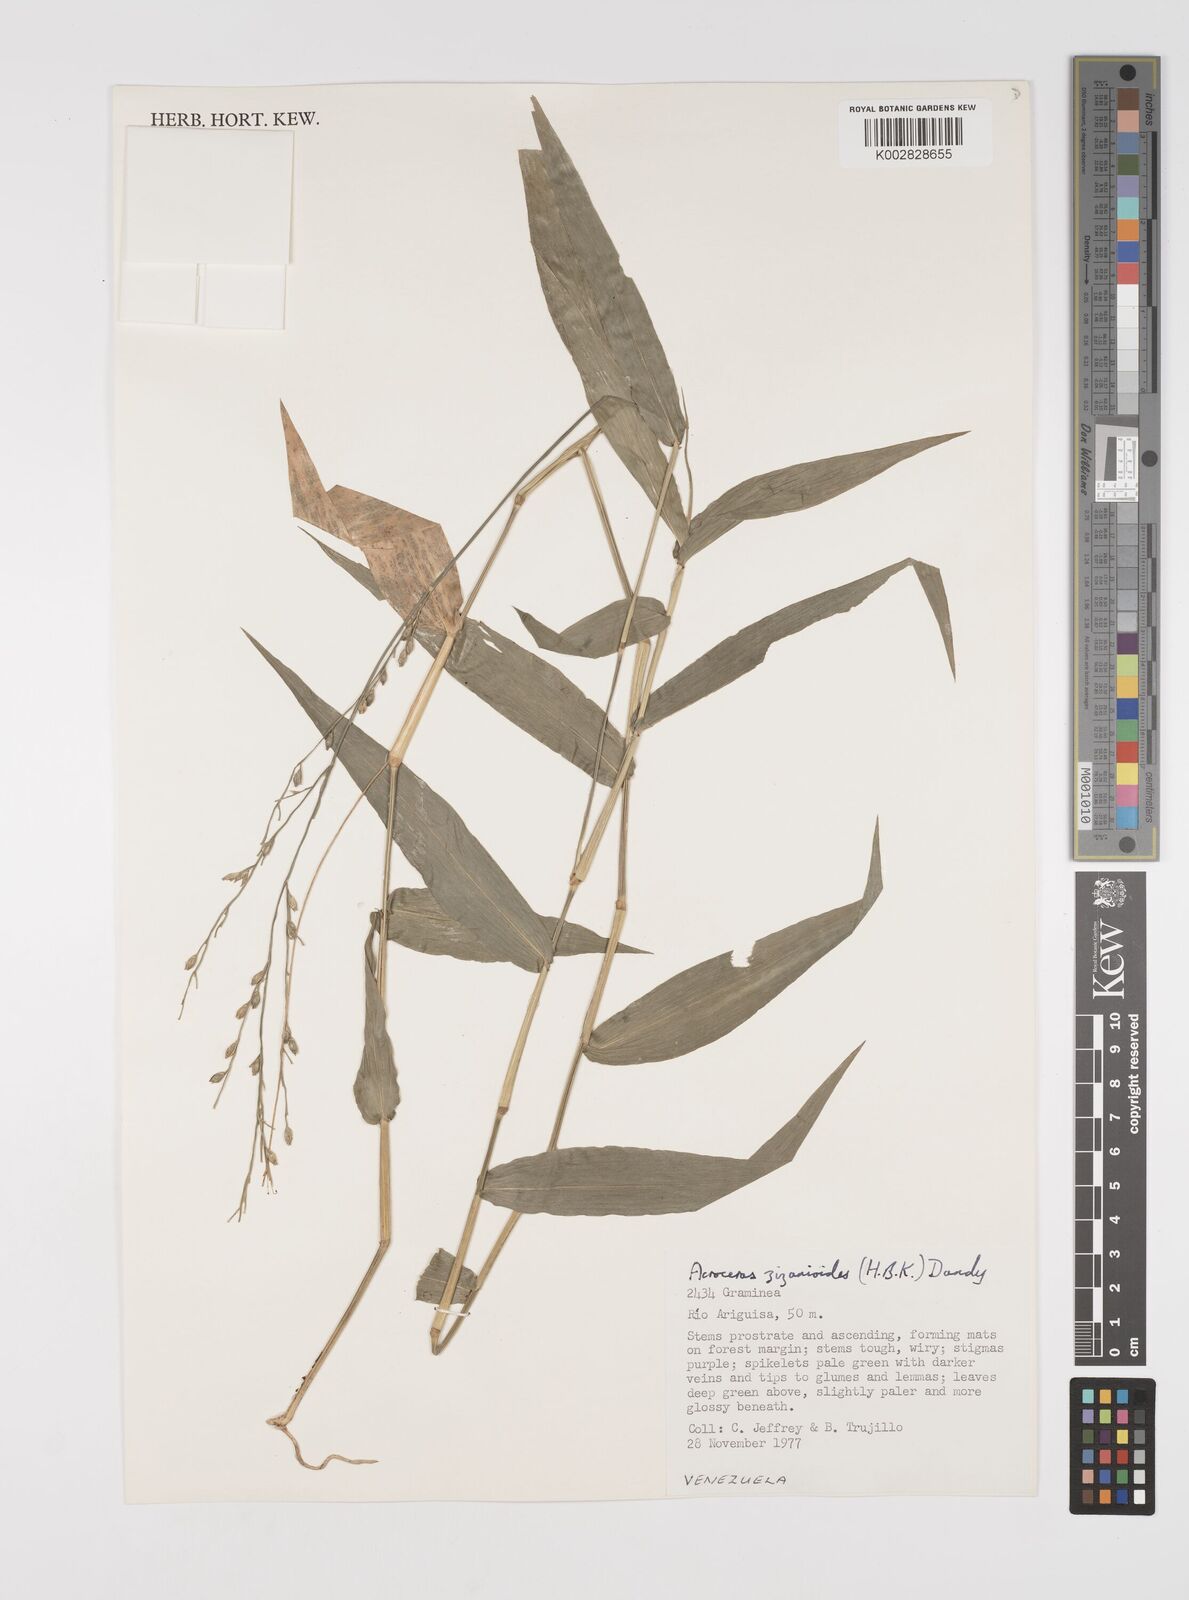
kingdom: Plantae
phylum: Tracheophyta
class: Liliopsida
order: Poales
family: Poaceae
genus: Acroceras
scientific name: Acroceras zizanioides
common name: Oat grass
